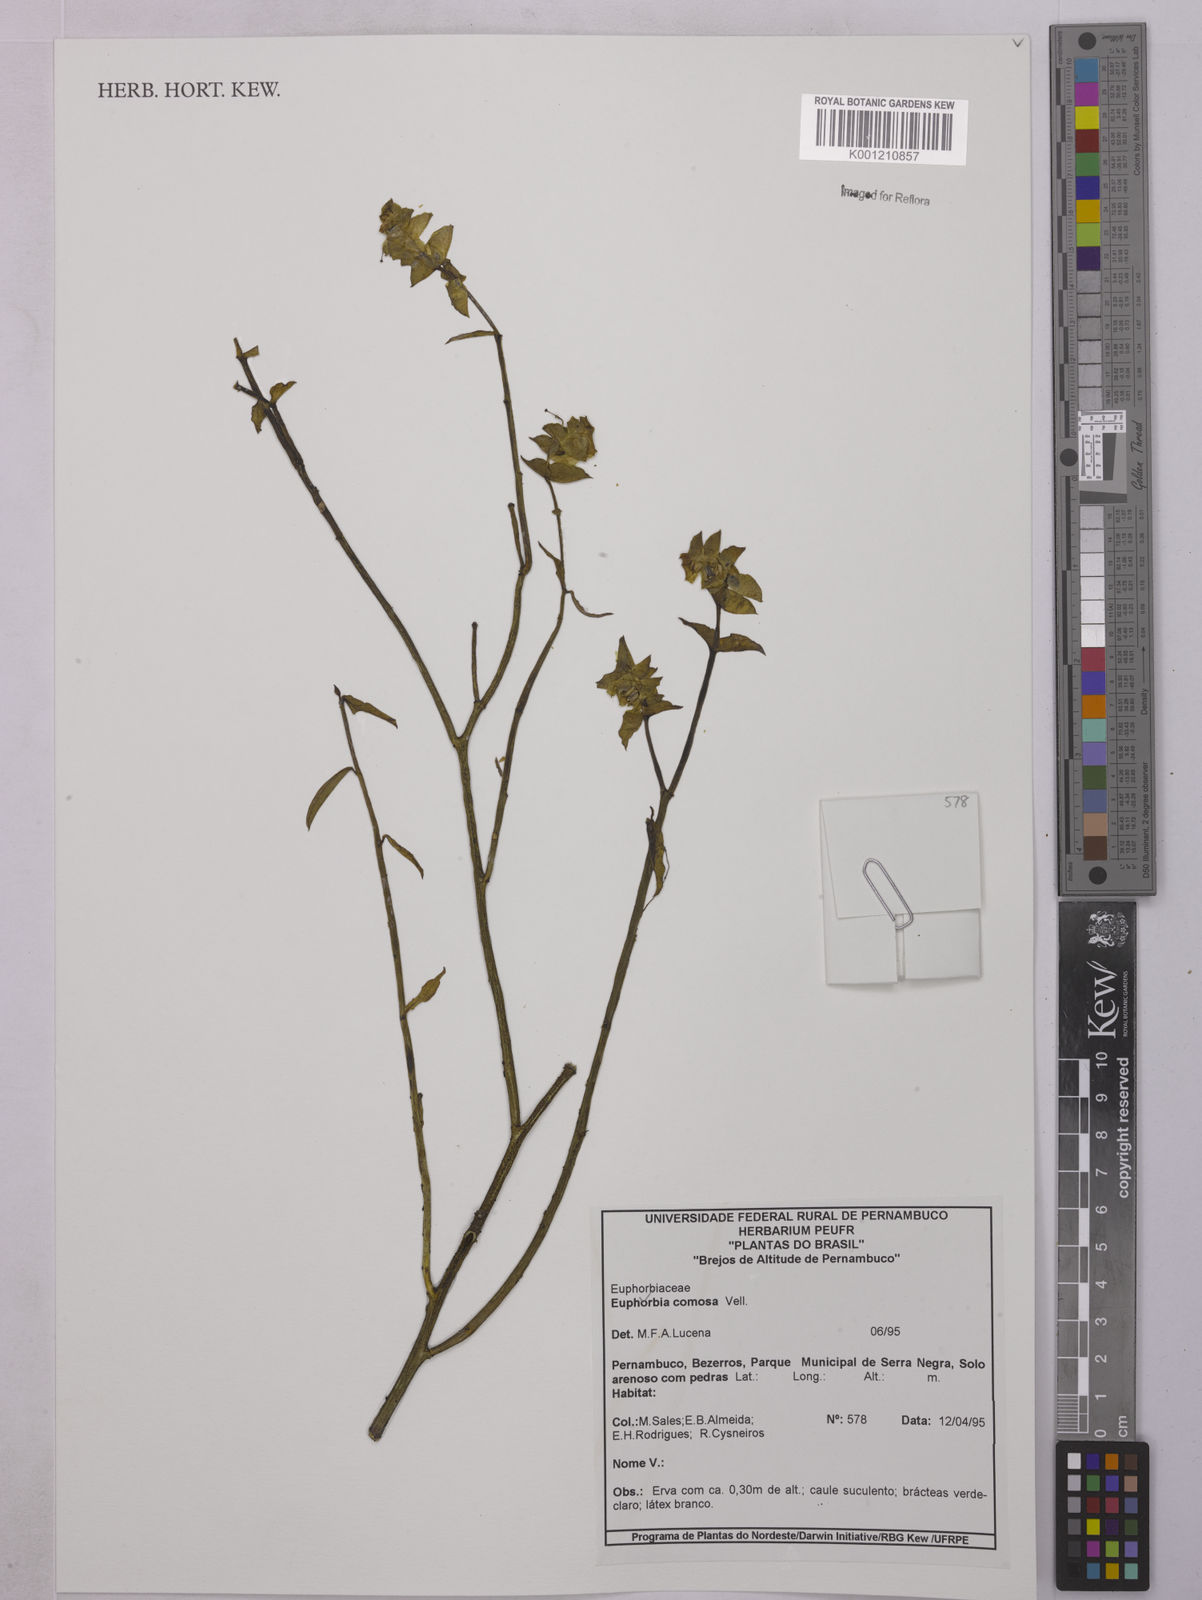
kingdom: Plantae
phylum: Tracheophyta
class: Magnoliopsida
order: Malpighiales
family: Euphorbiaceae
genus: Euphorbia
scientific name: Euphorbia comosa
